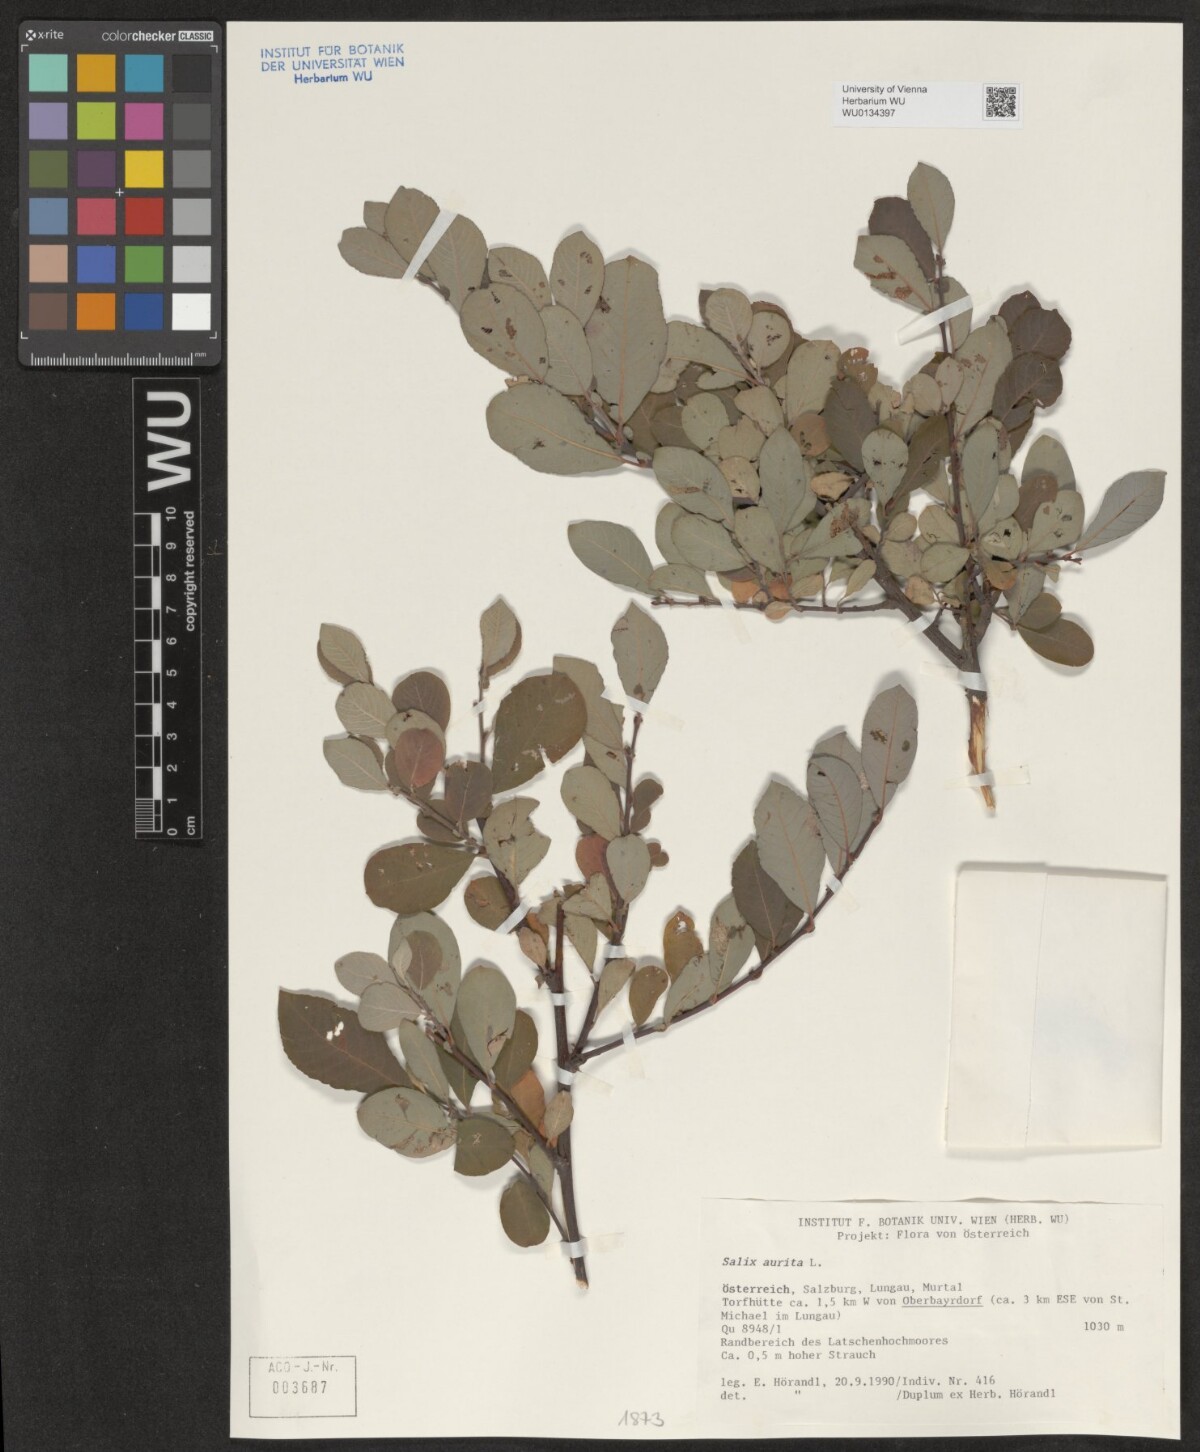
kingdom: Plantae
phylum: Tracheophyta
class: Magnoliopsida
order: Malpighiales
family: Salicaceae
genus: Salix
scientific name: Salix aurita
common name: Eared willow
